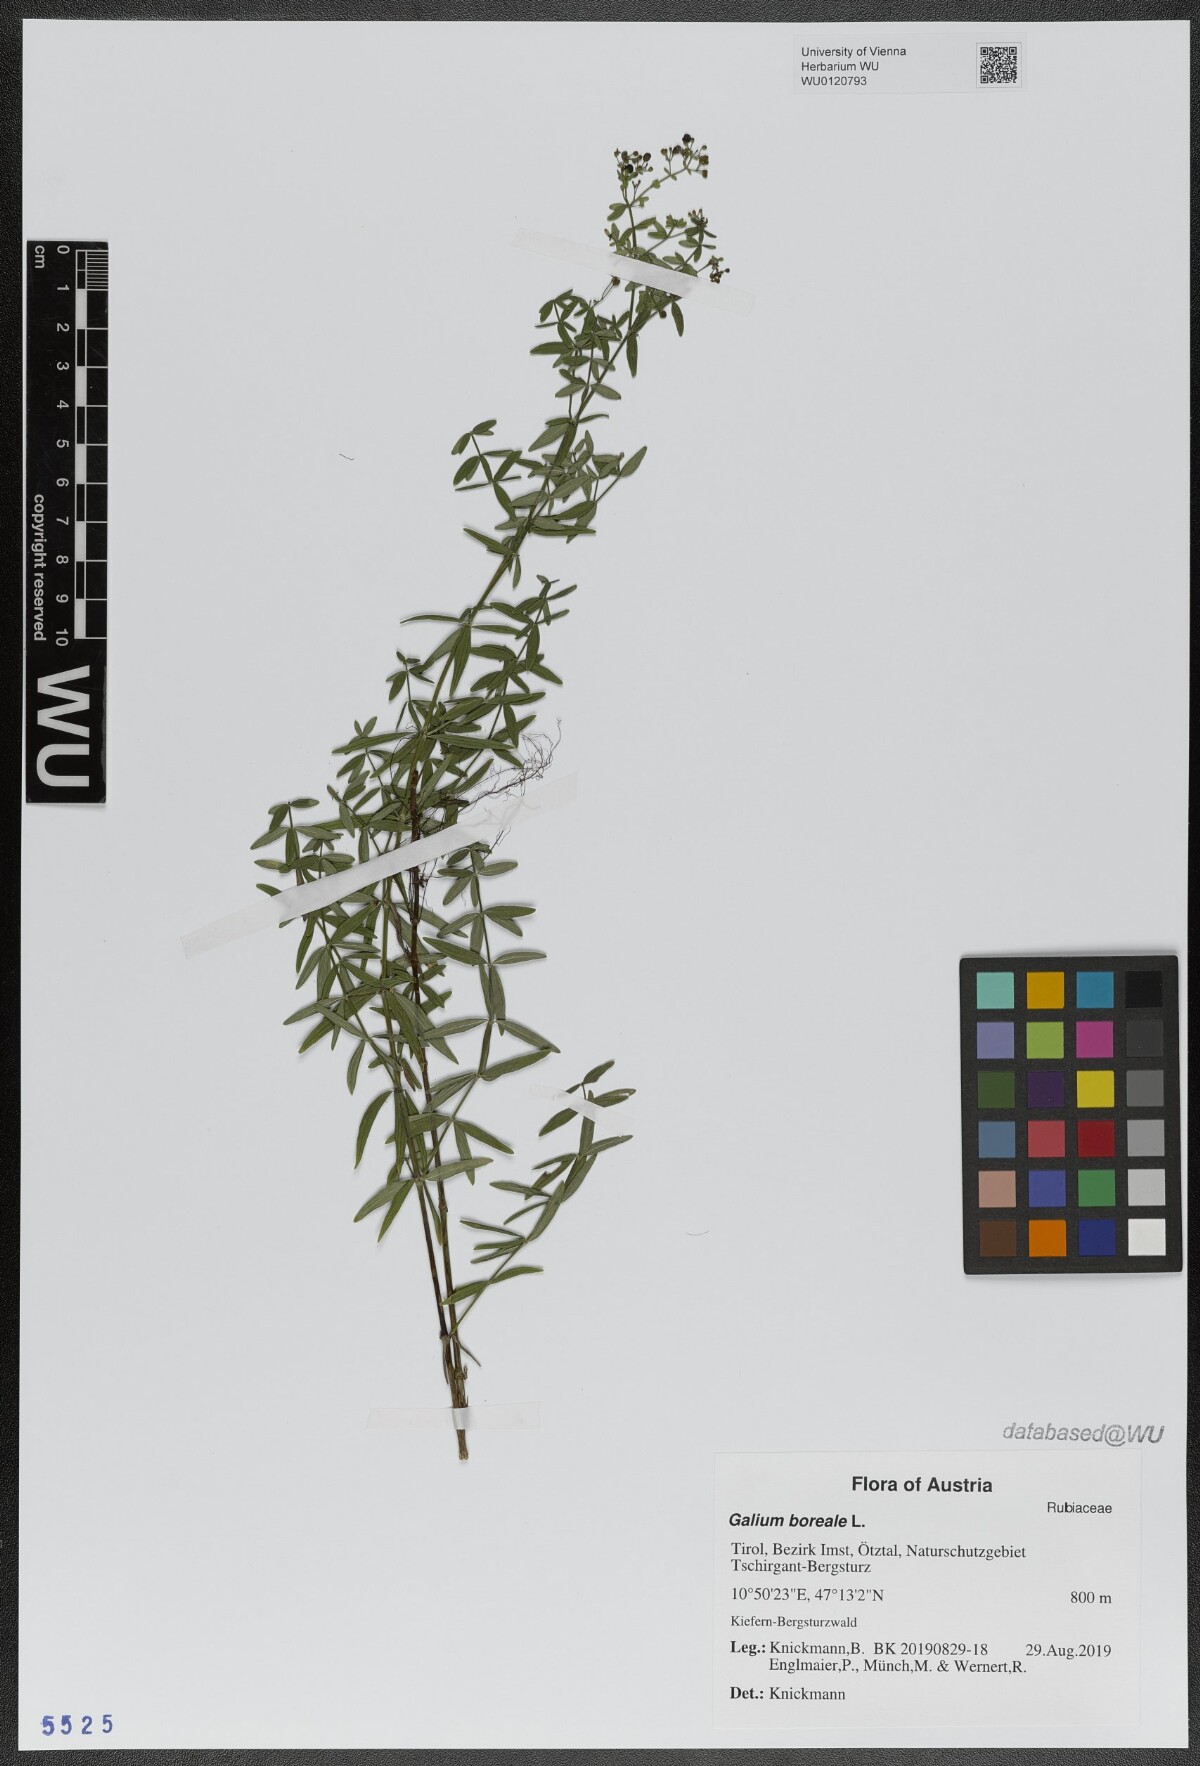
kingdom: Plantae
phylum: Tracheophyta
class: Magnoliopsida
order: Gentianales
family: Rubiaceae
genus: Galium
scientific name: Galium boreale
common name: Northern bedstraw
